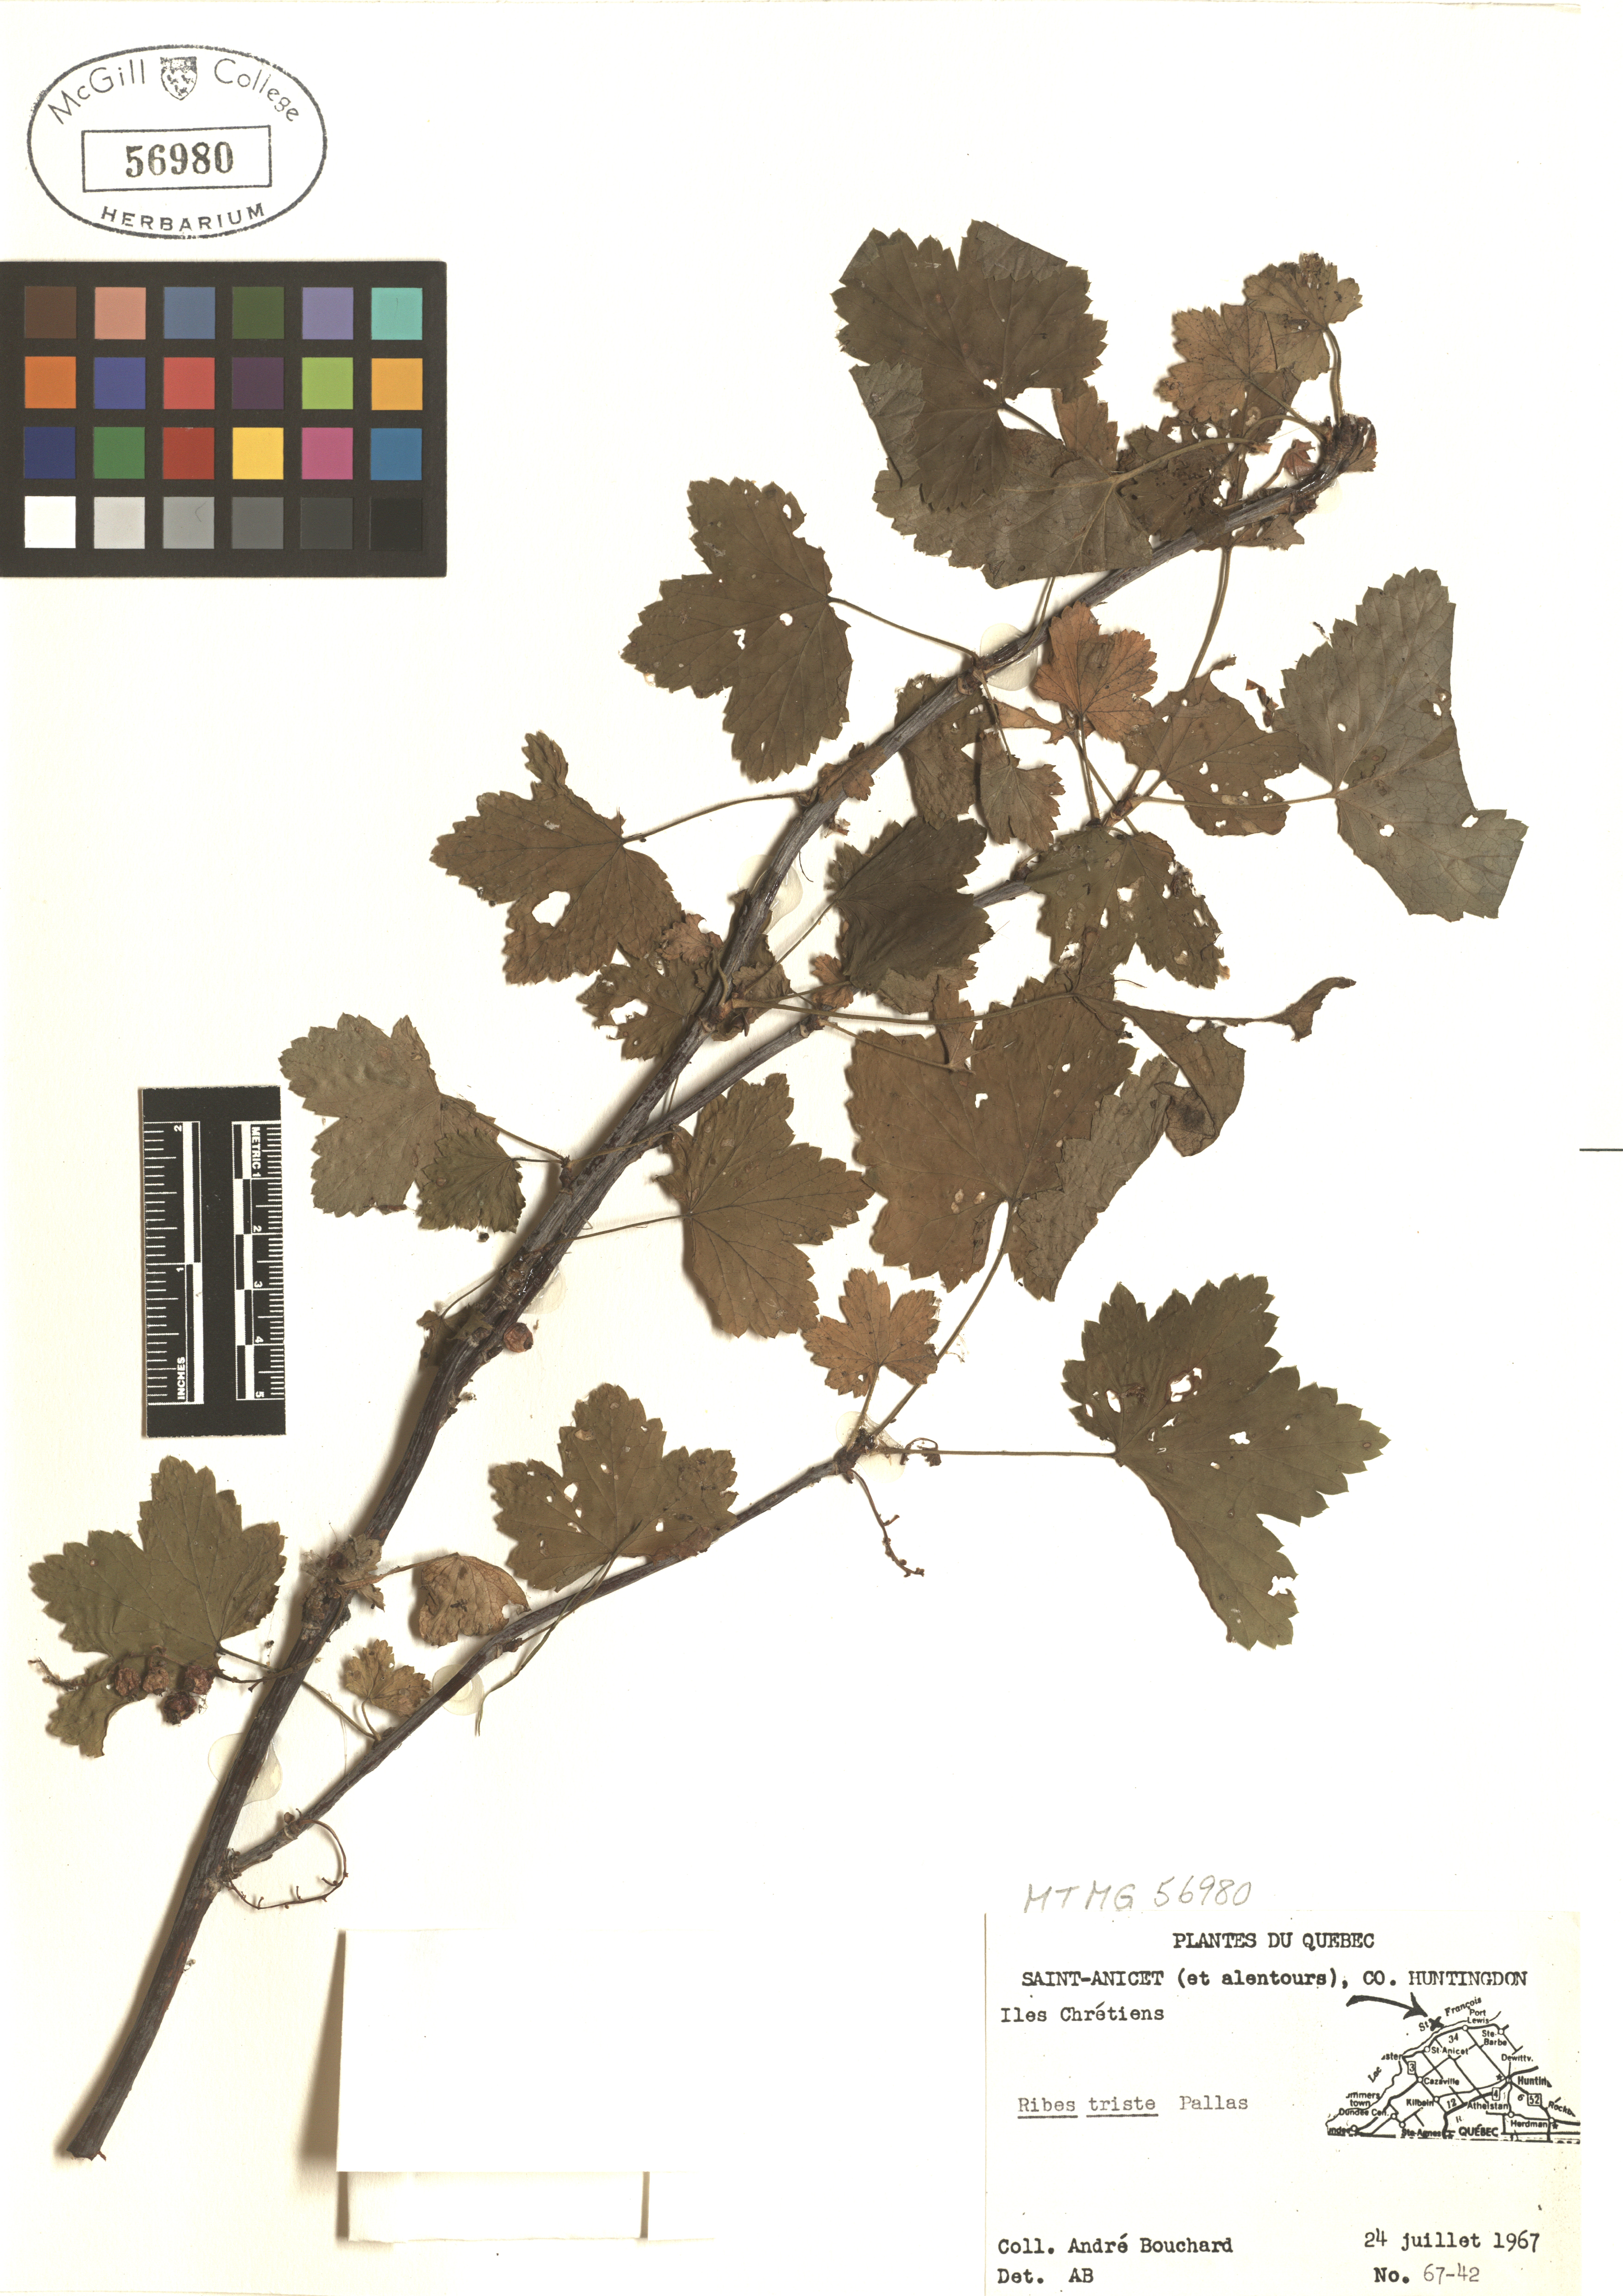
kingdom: Plantae
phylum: Tracheophyta
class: Magnoliopsida
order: Saxifragales
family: Grossulariaceae
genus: Ribes
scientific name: Ribes triste
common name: Swamp red currant
